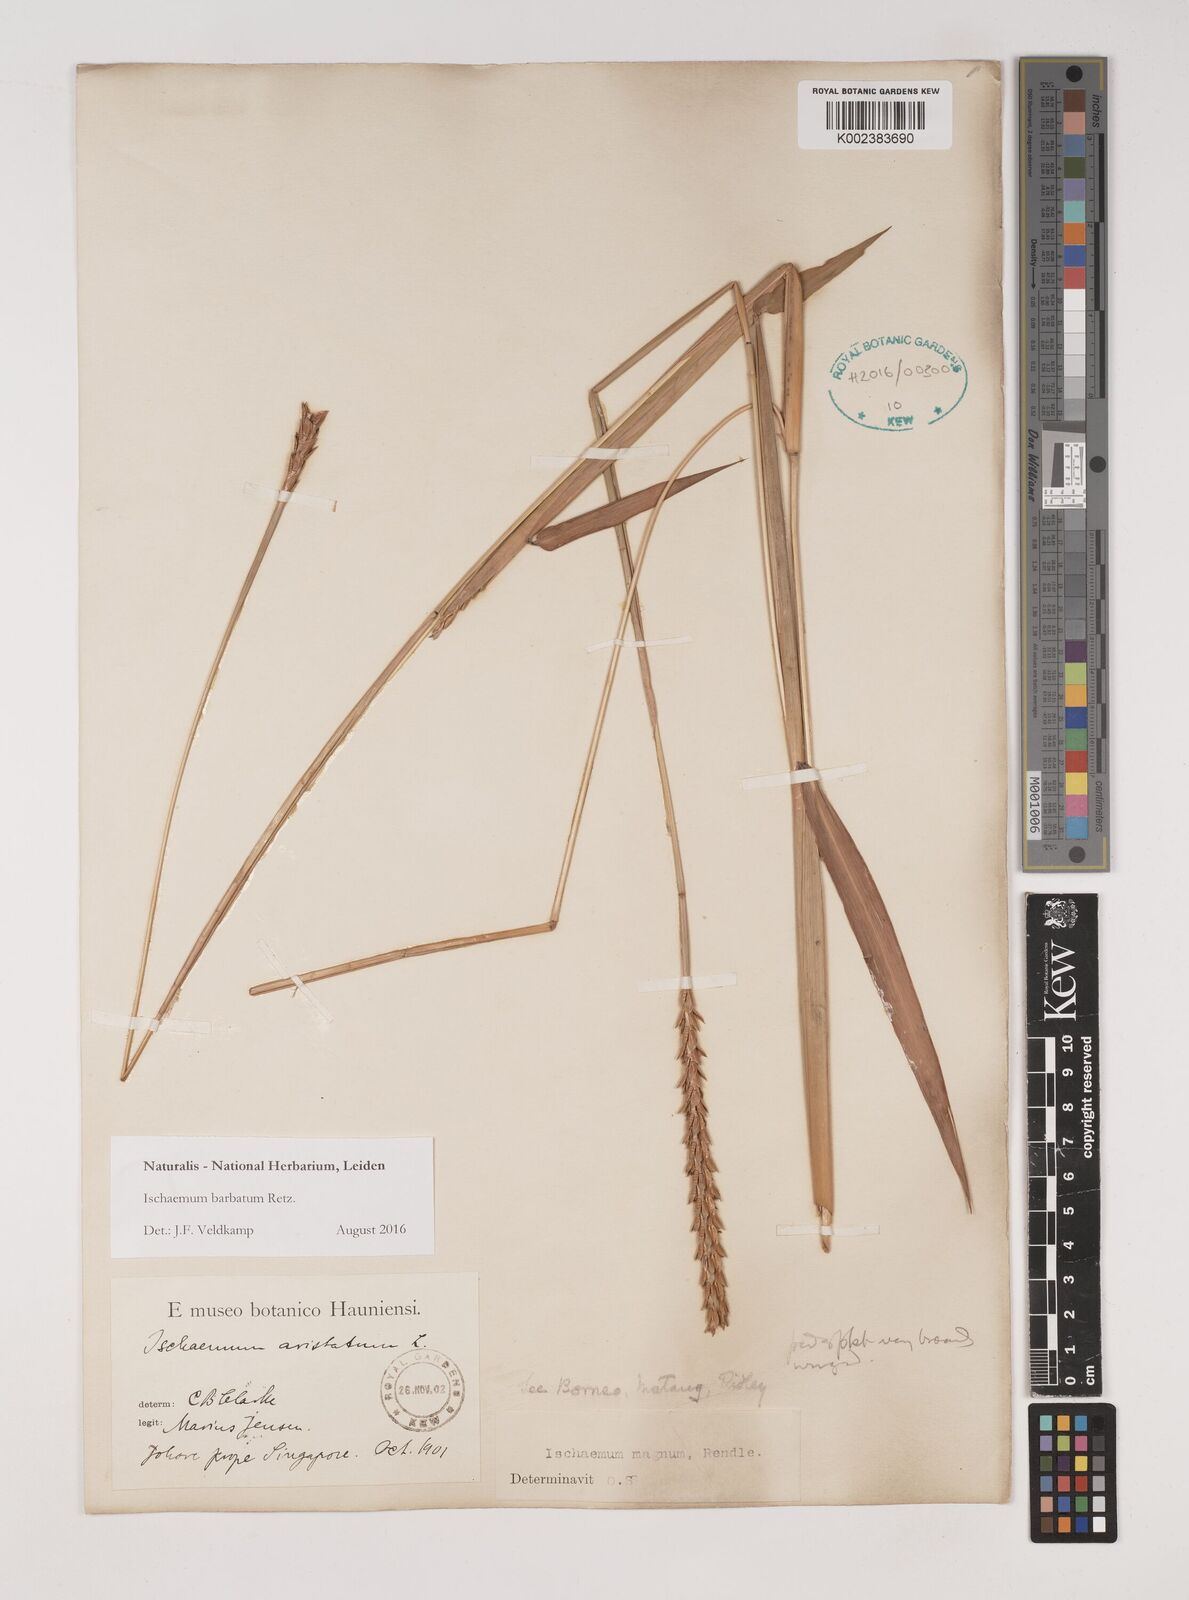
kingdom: Plantae
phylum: Tracheophyta
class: Liliopsida
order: Poales
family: Poaceae
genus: Ischaemum
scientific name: Ischaemum barbatum
